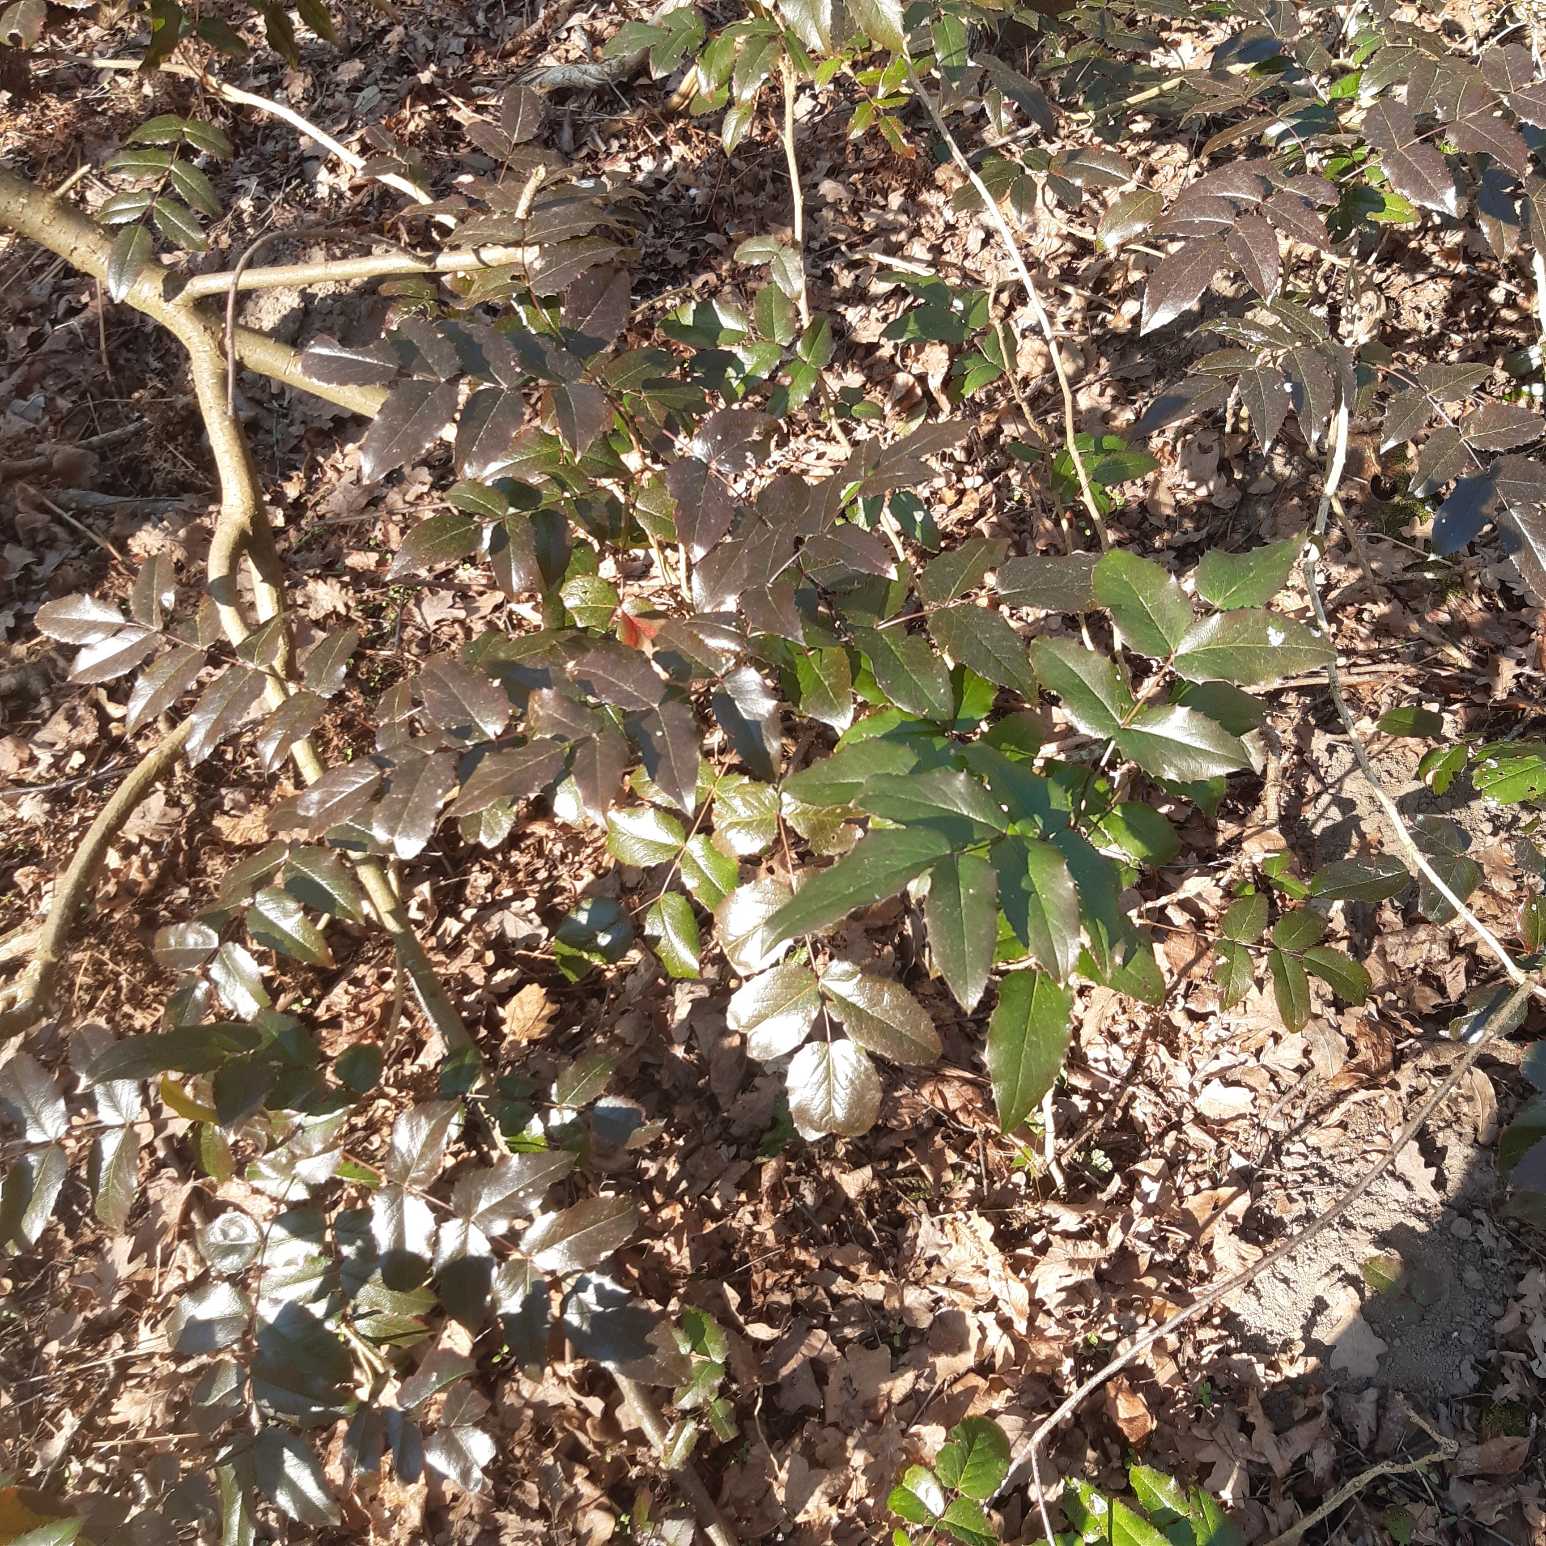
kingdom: Plantae
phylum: Tracheophyta
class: Magnoliopsida
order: Ranunculales
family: Berberidaceae
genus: Mahonia
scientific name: Mahonia aquifolium
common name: Almindelig mahonie
